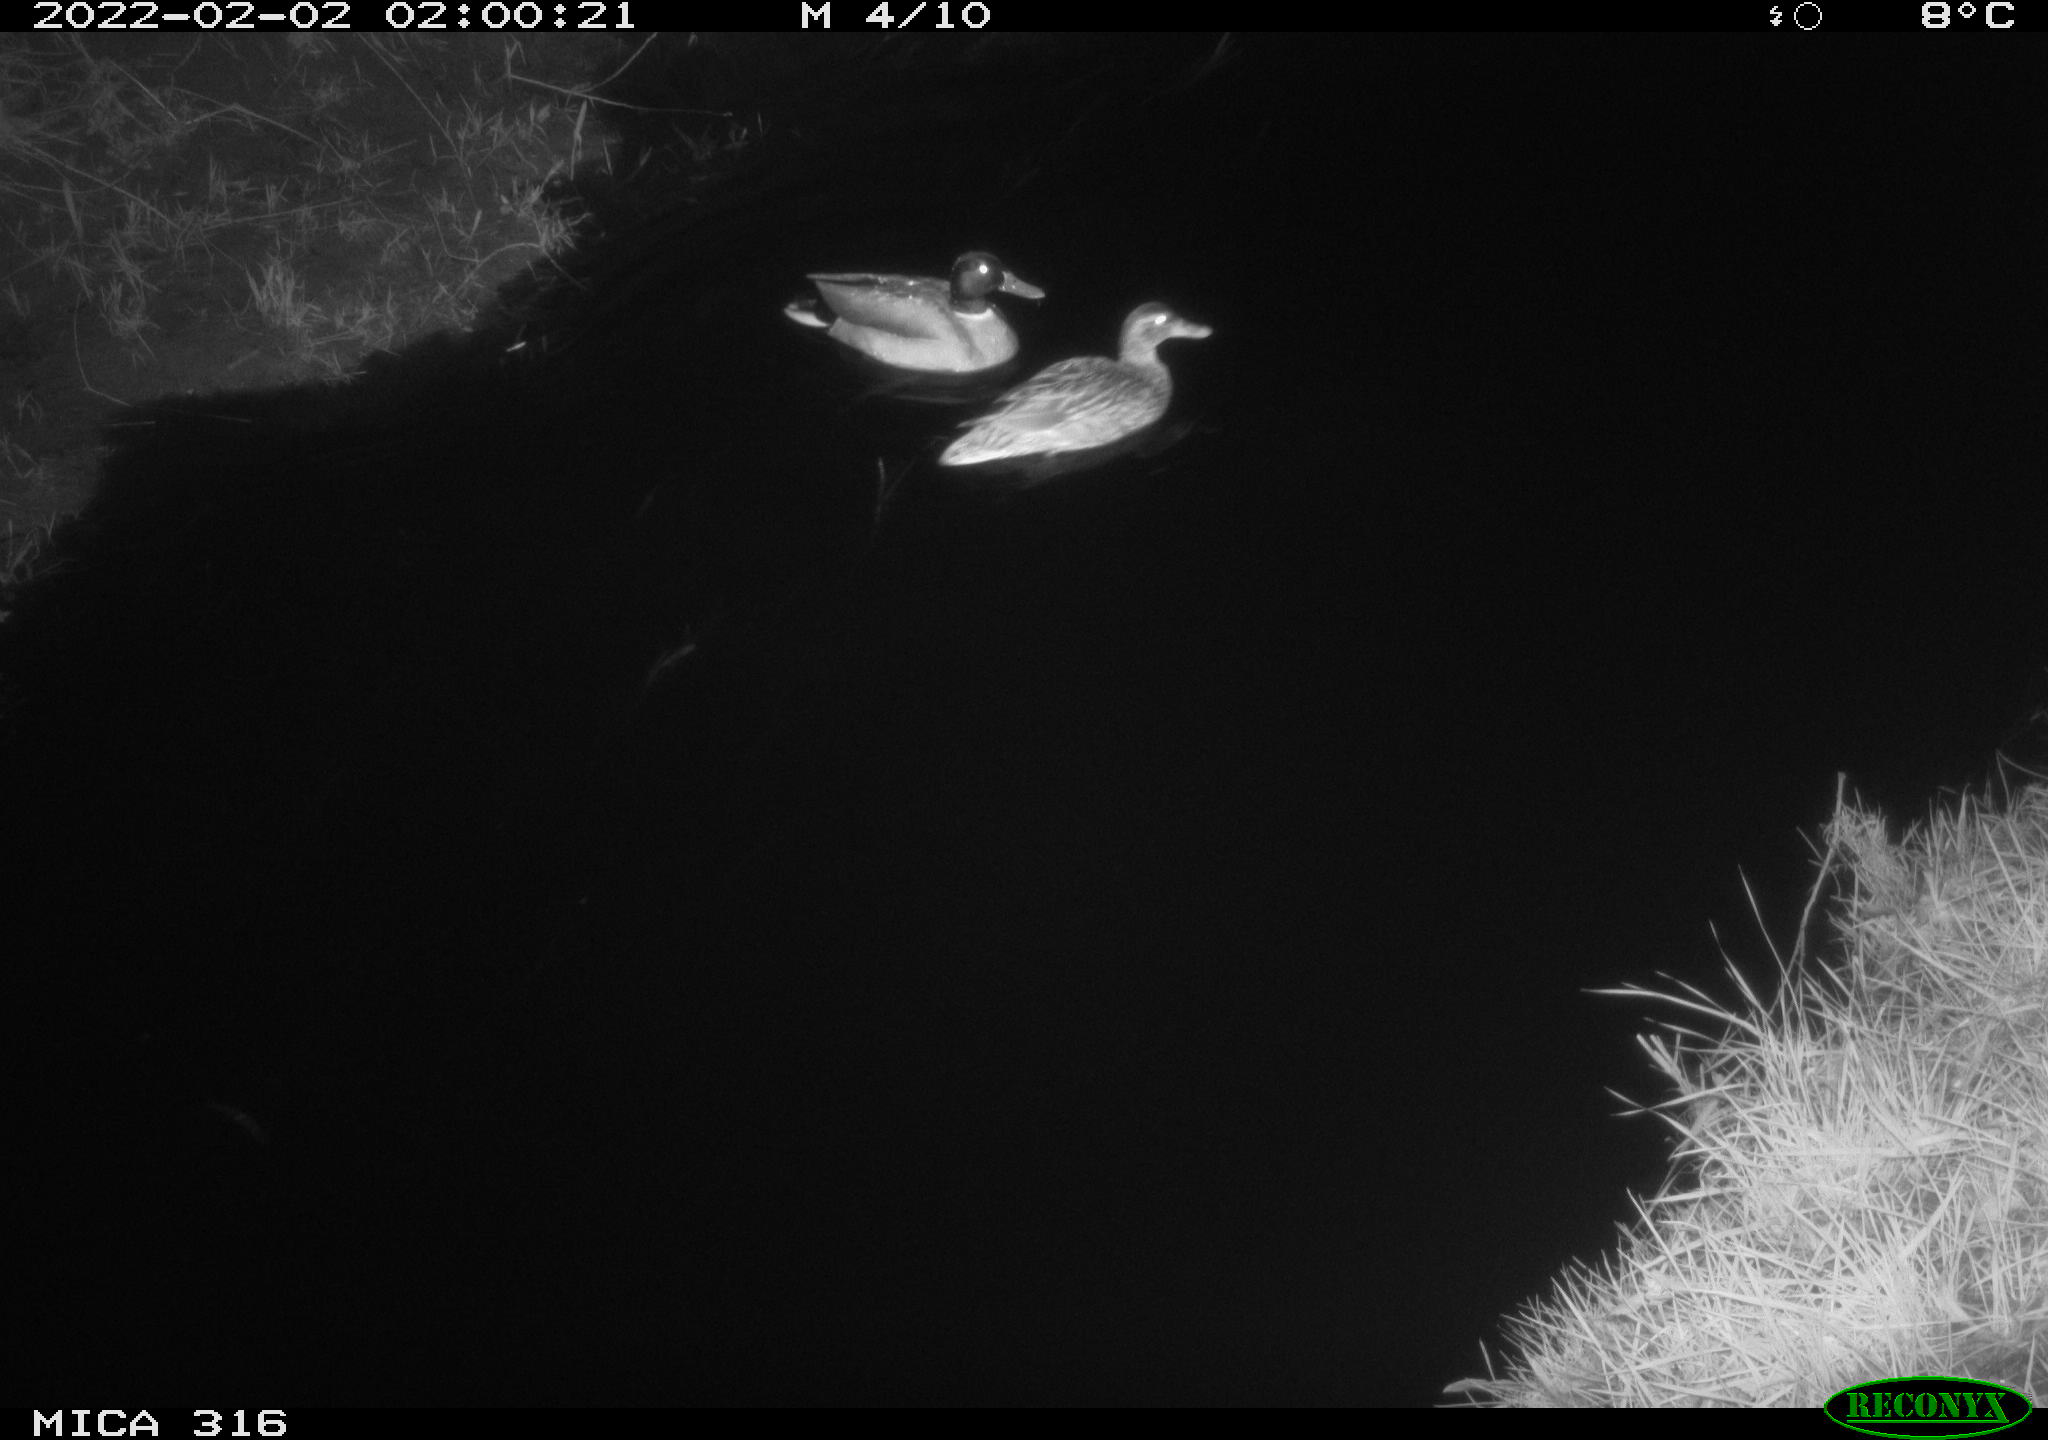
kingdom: Animalia
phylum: Chordata
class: Aves
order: Anseriformes
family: Anatidae
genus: Anas
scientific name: Anas platyrhynchos
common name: Mallard
